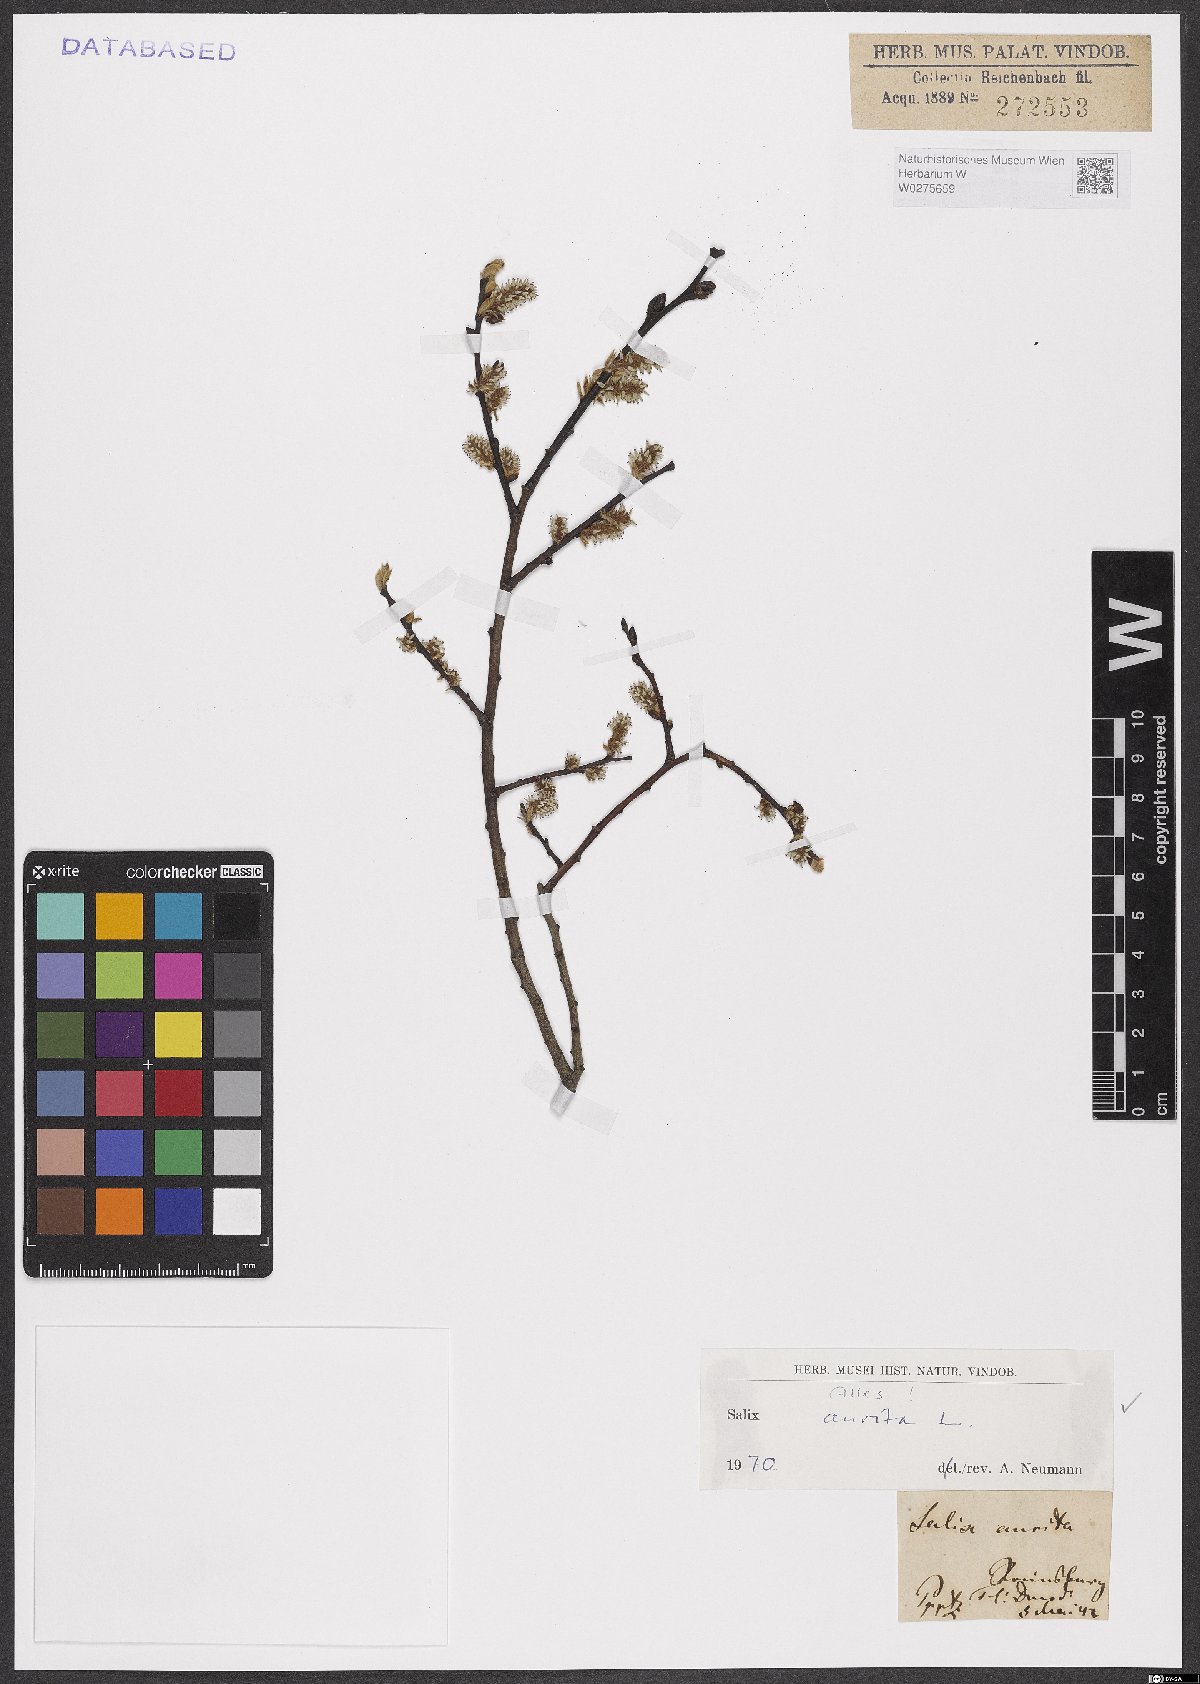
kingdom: Plantae
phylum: Tracheophyta
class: Magnoliopsida
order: Malpighiales
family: Salicaceae
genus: Salix
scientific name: Salix aurita
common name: Eared willow
